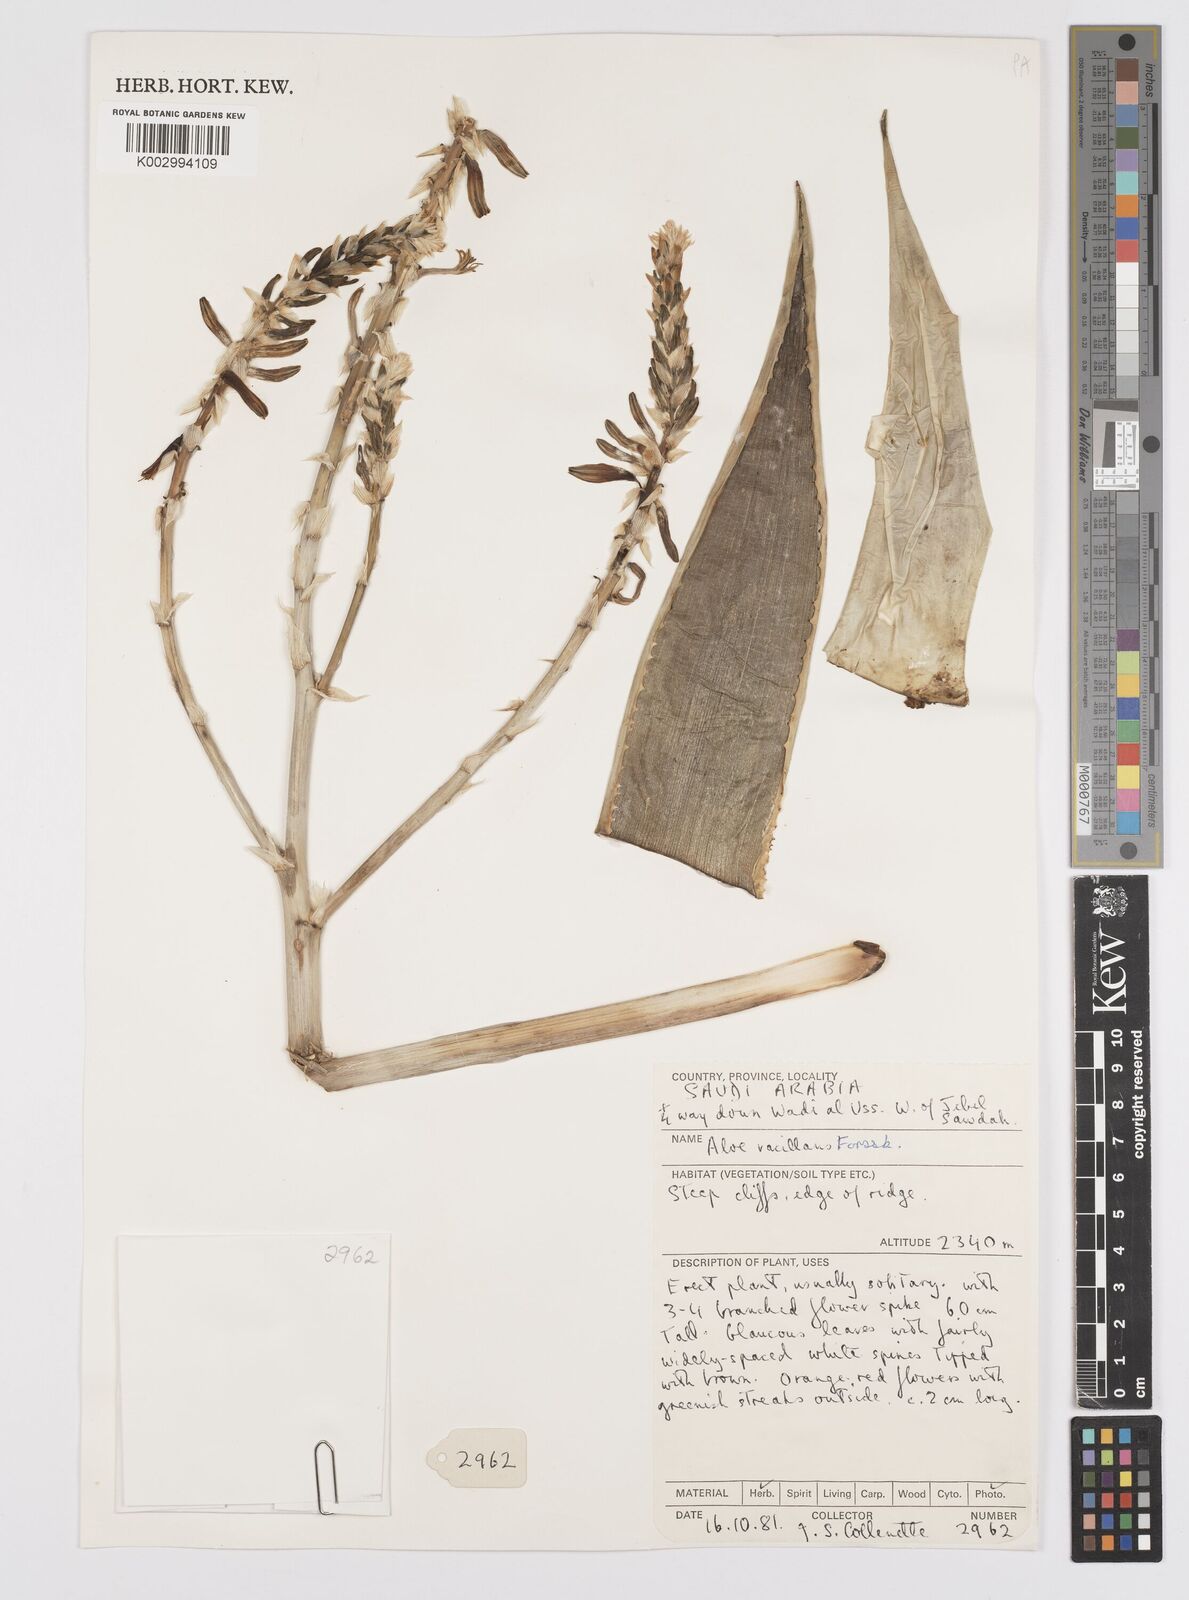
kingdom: Plantae
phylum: Tracheophyta
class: Liliopsida
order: Asparagales
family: Asphodelaceae
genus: Aloe
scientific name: Aloe vacillans
